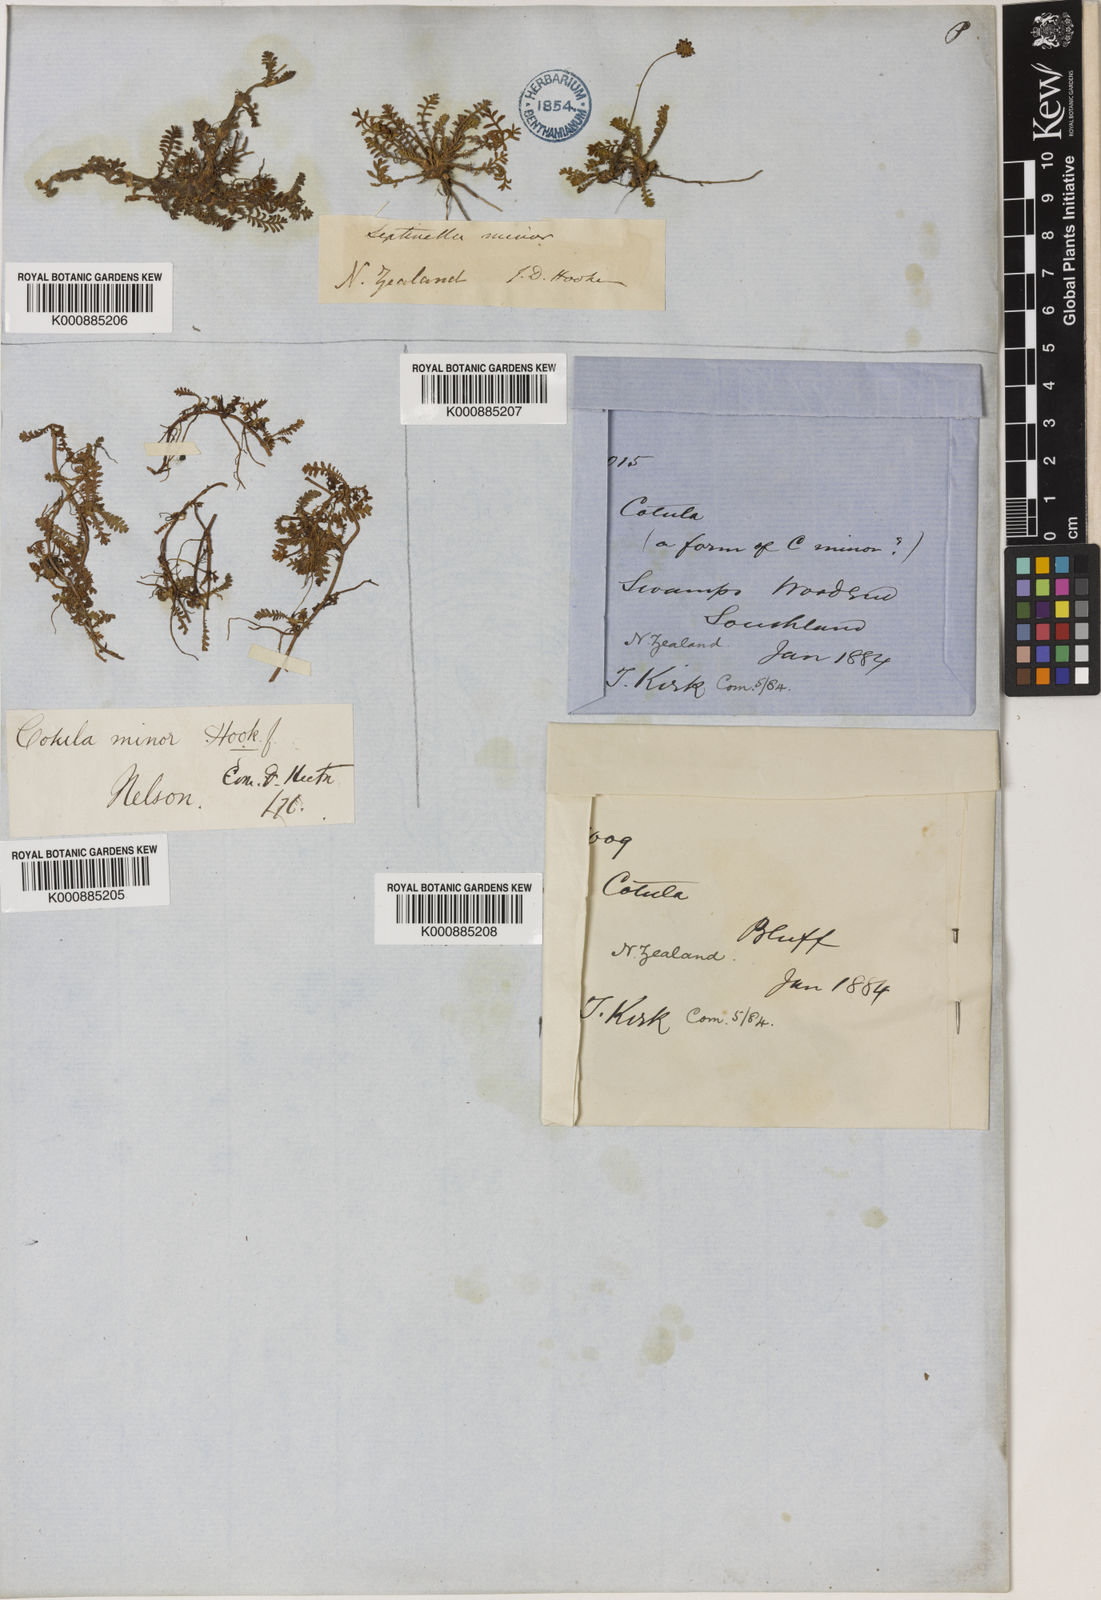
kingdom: Plantae
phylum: Tracheophyta
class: Magnoliopsida
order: Asterales
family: Asteraceae
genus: Leptinella
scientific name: Leptinella minor
